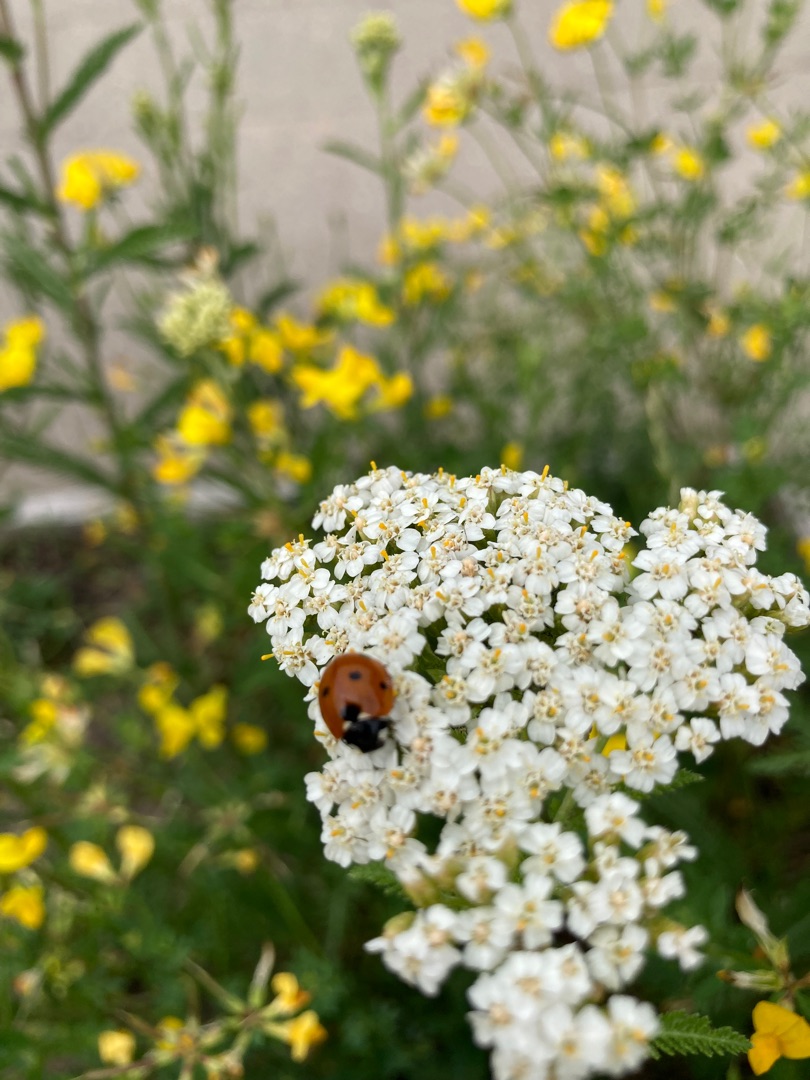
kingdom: Animalia
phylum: Arthropoda
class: Insecta
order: Coleoptera
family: Coccinellidae
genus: Coccinella
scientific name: Coccinella septempunctata
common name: Syvplettet mariehøne
